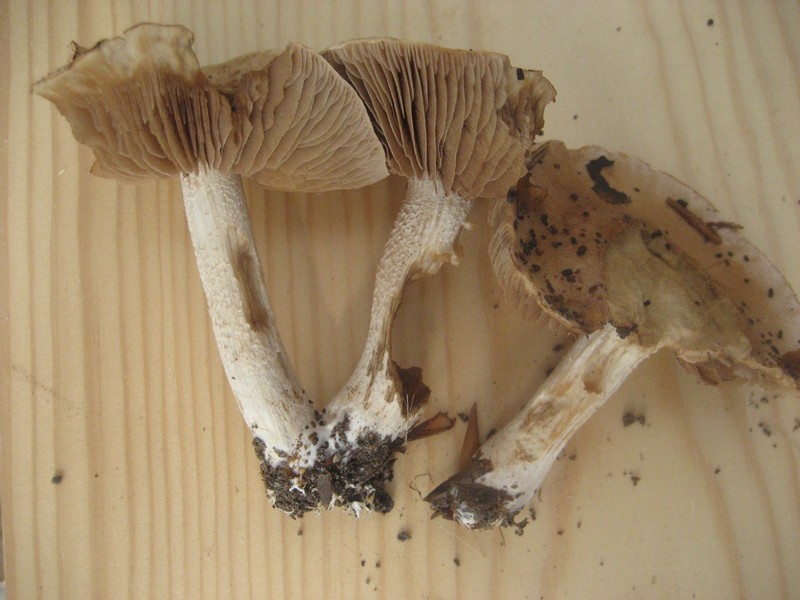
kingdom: Fungi
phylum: Basidiomycota
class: Agaricomycetes
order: Agaricales
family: Hymenogastraceae
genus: Hebeloma
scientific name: Hebeloma sinapizans
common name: ræddike-tåreblad
